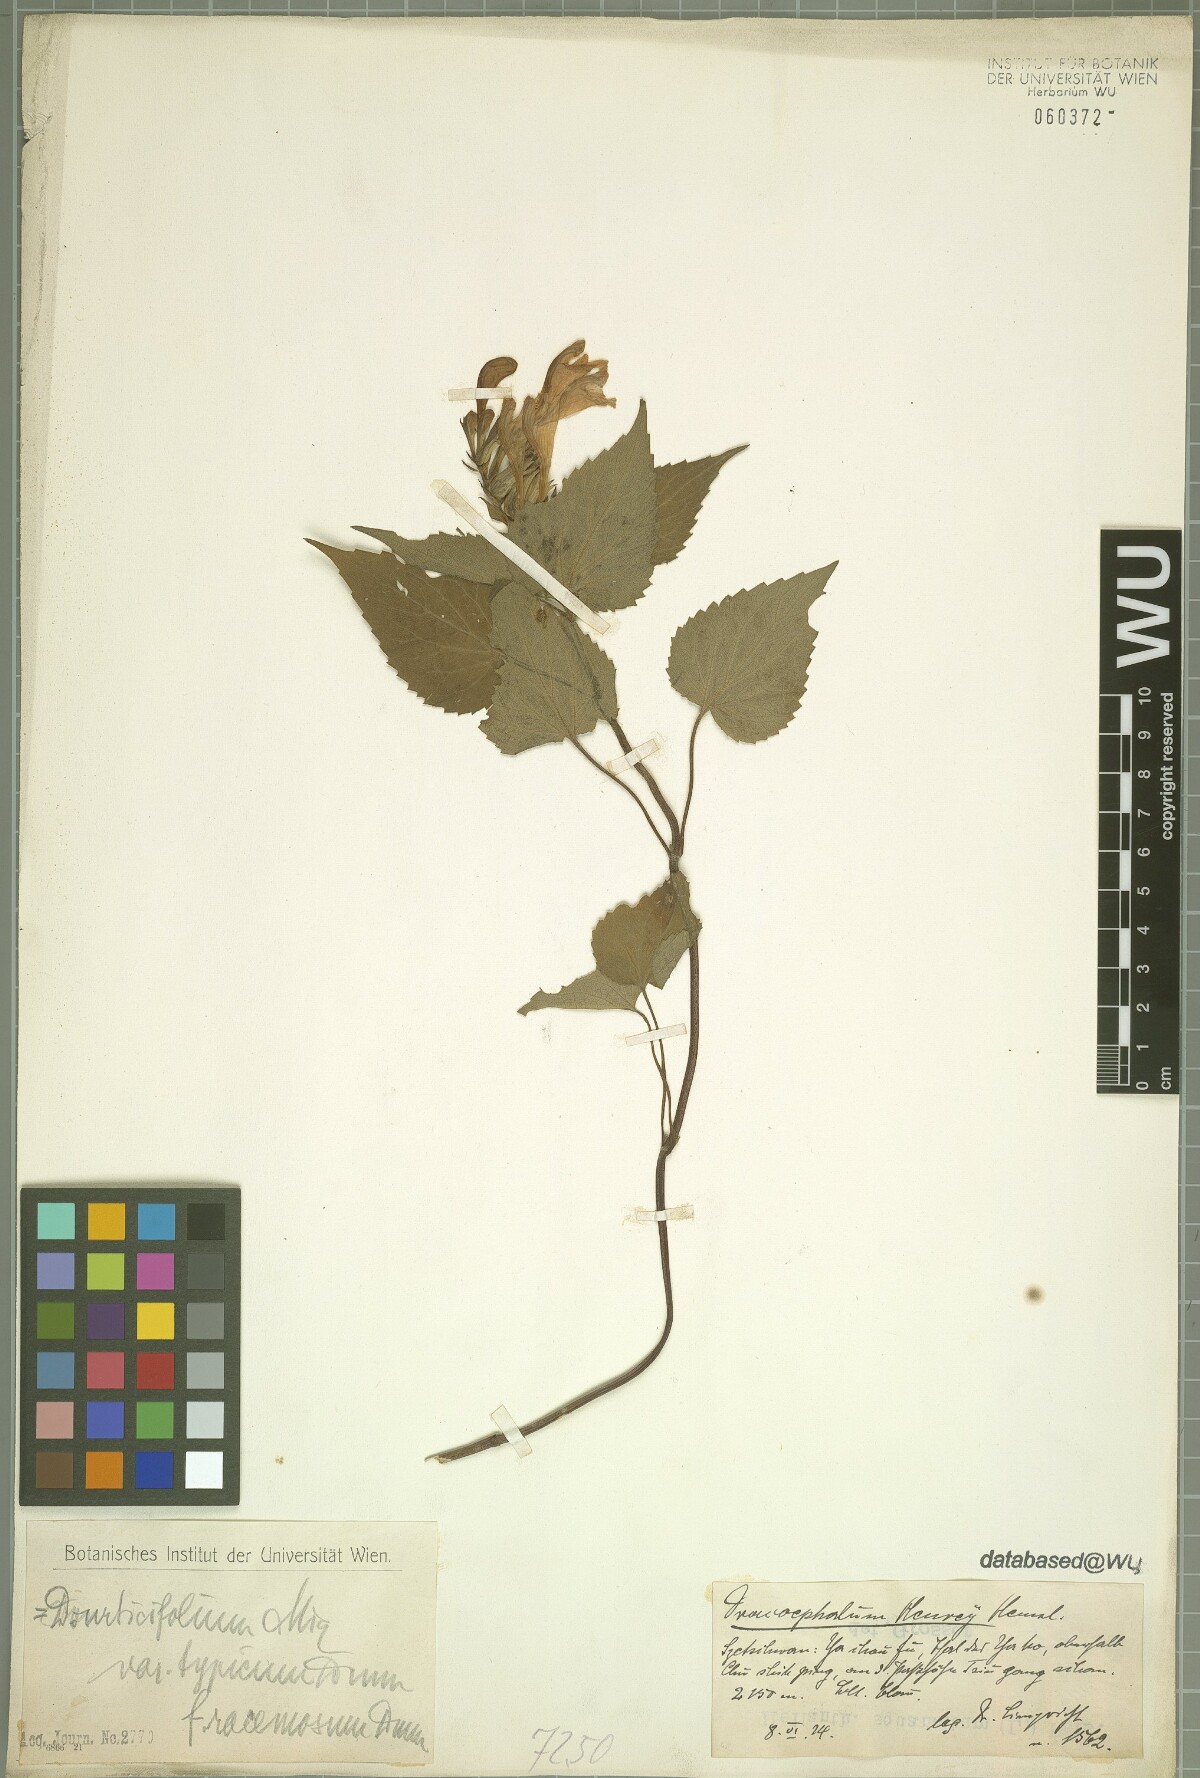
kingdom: Plantae
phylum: Tracheophyta
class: Magnoliopsida
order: Lamiales
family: Lamiaceae
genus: Meehania
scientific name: Meehania urticifolia
